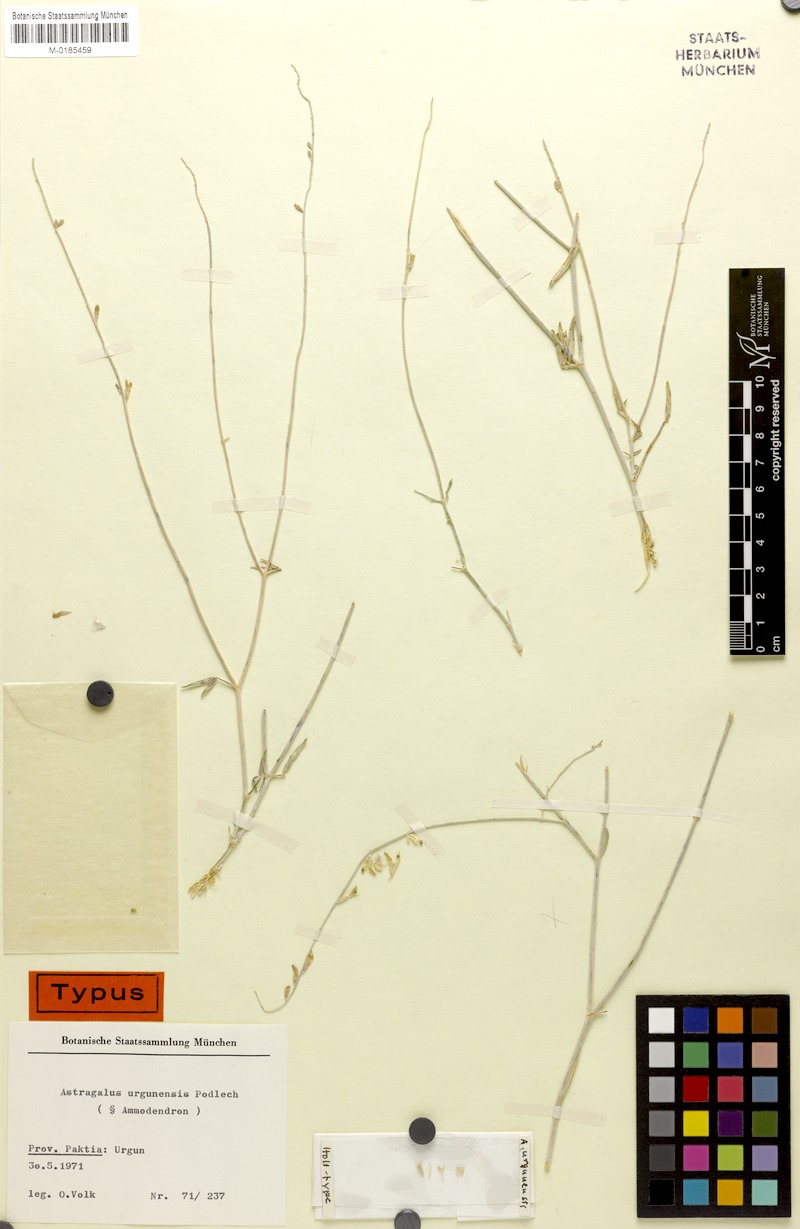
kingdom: Plantae
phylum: Tracheophyta
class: Magnoliopsida
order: Fabales
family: Fabaceae
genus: Astragalus
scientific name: Astragalus urgunensis
